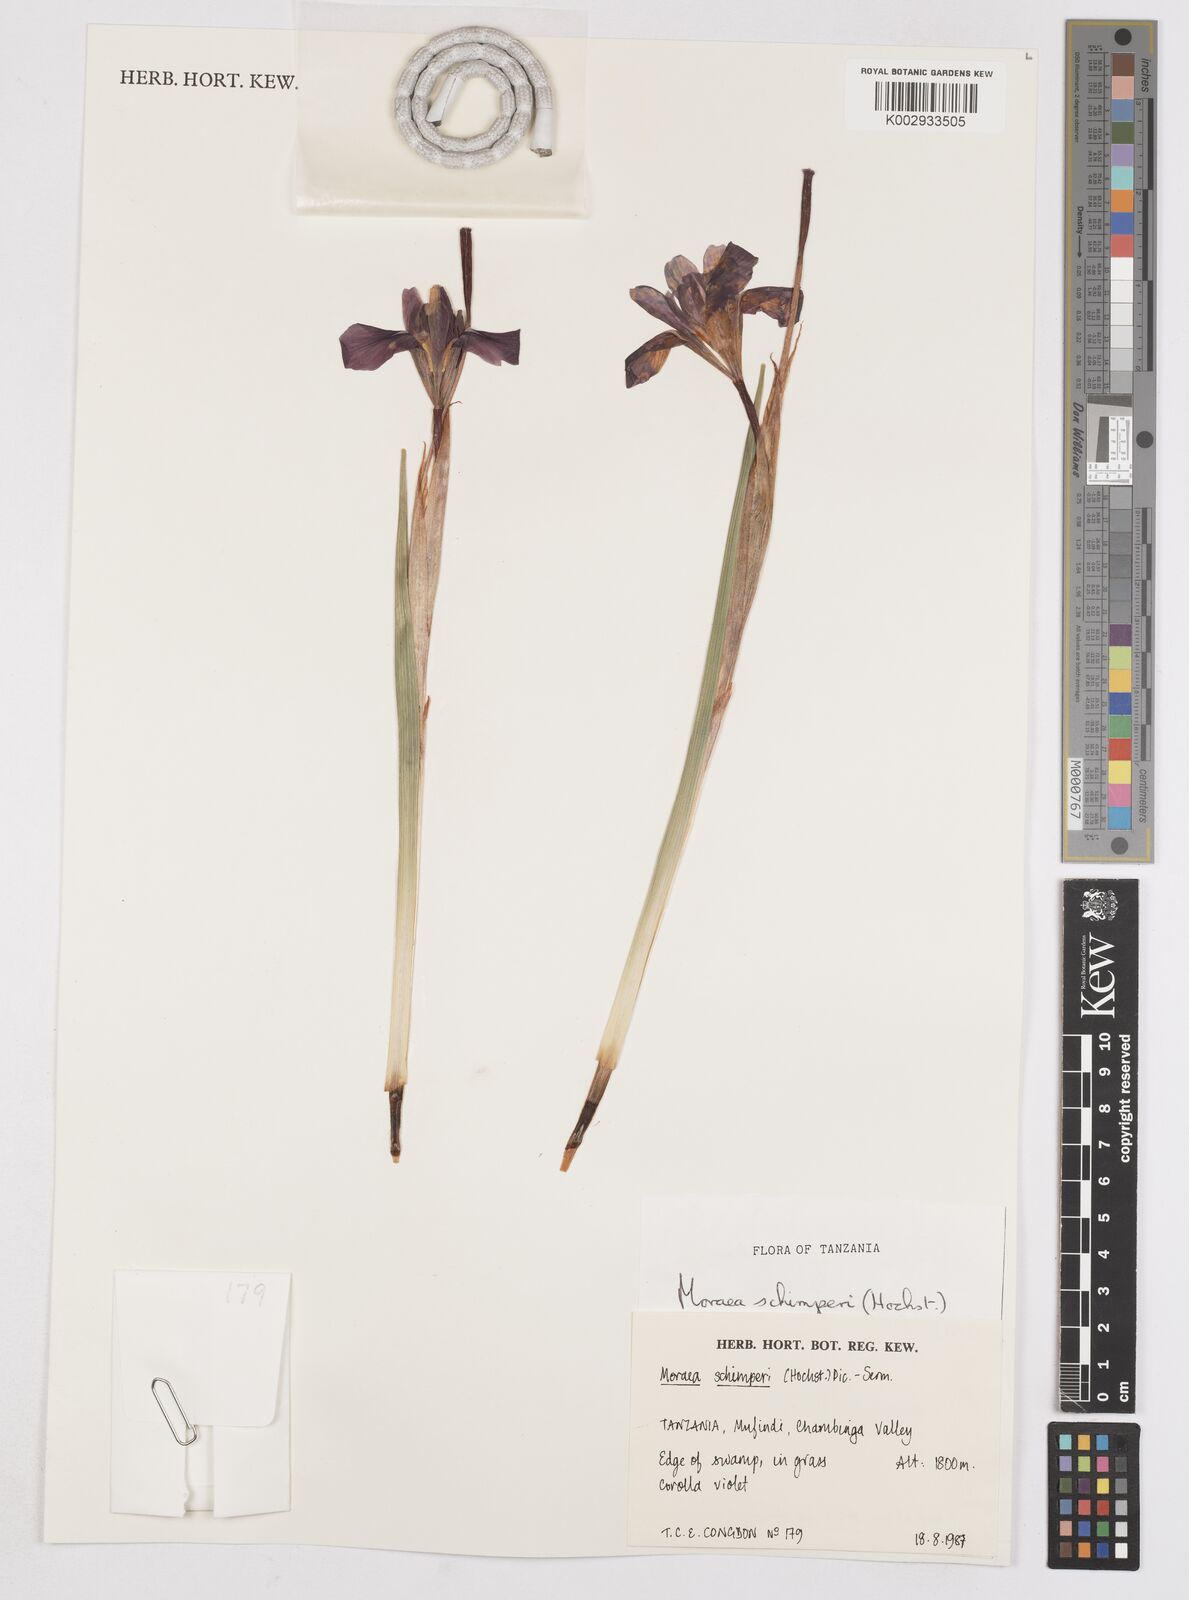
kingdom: Plantae
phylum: Tracheophyta
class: Liliopsida
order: Asparagales
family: Iridaceae
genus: Moraea
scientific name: Moraea schimperi
